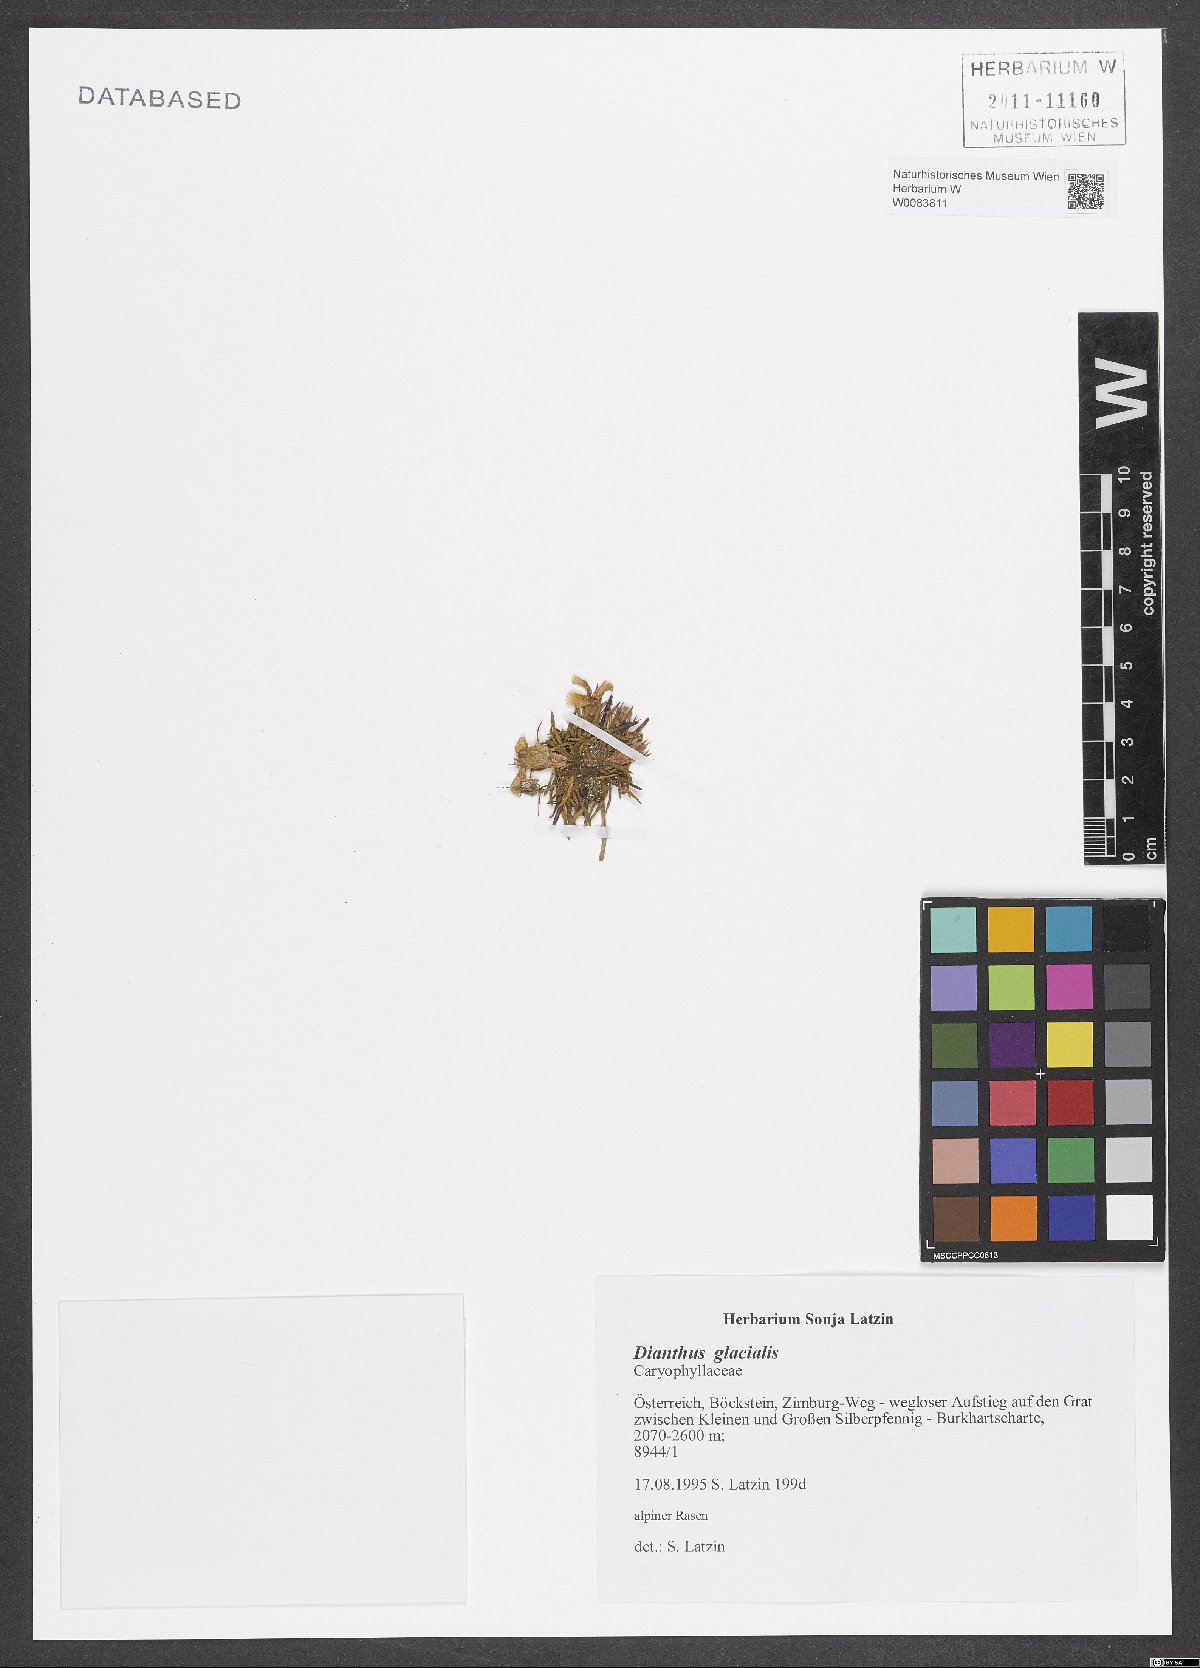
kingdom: Plantae
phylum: Tracheophyta
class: Magnoliopsida
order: Caryophyllales
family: Caryophyllaceae
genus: Dianthus
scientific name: Dianthus glacialis
